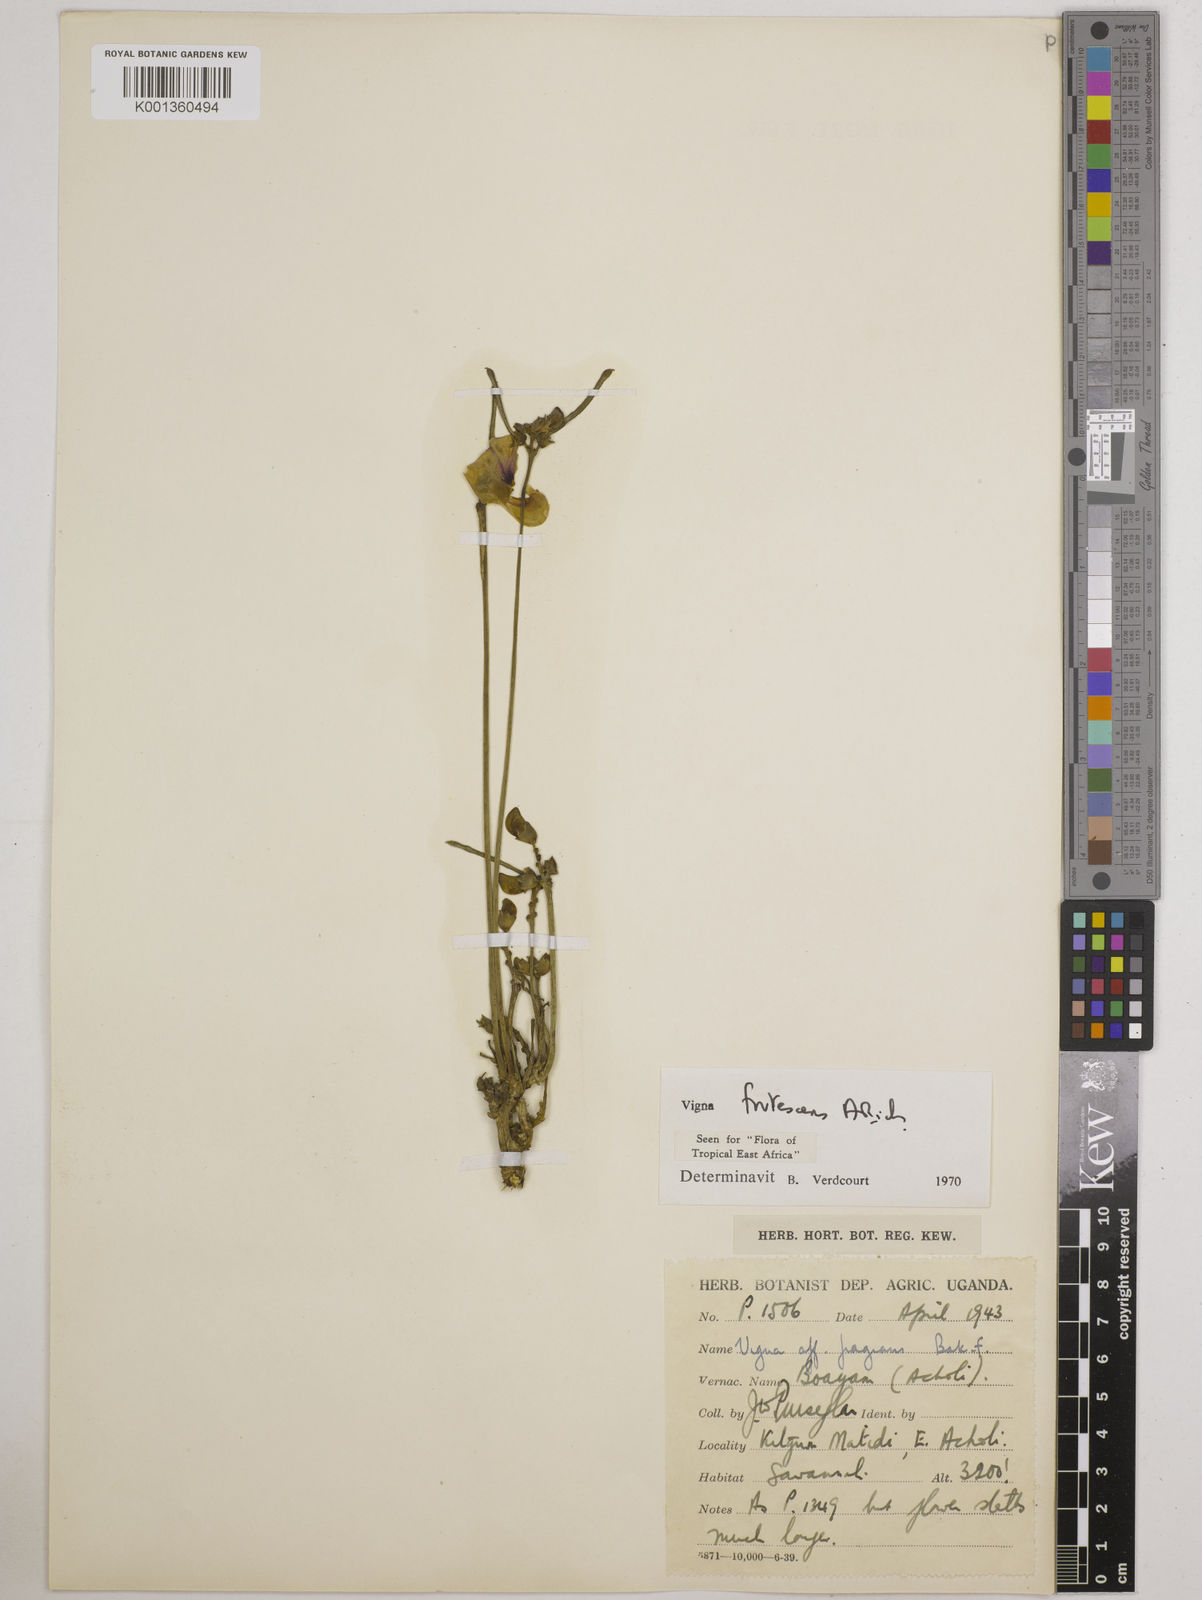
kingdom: Plantae
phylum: Tracheophyta
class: Magnoliopsida
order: Fabales
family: Fabaceae
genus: Vigna
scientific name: Vigna frutescens
